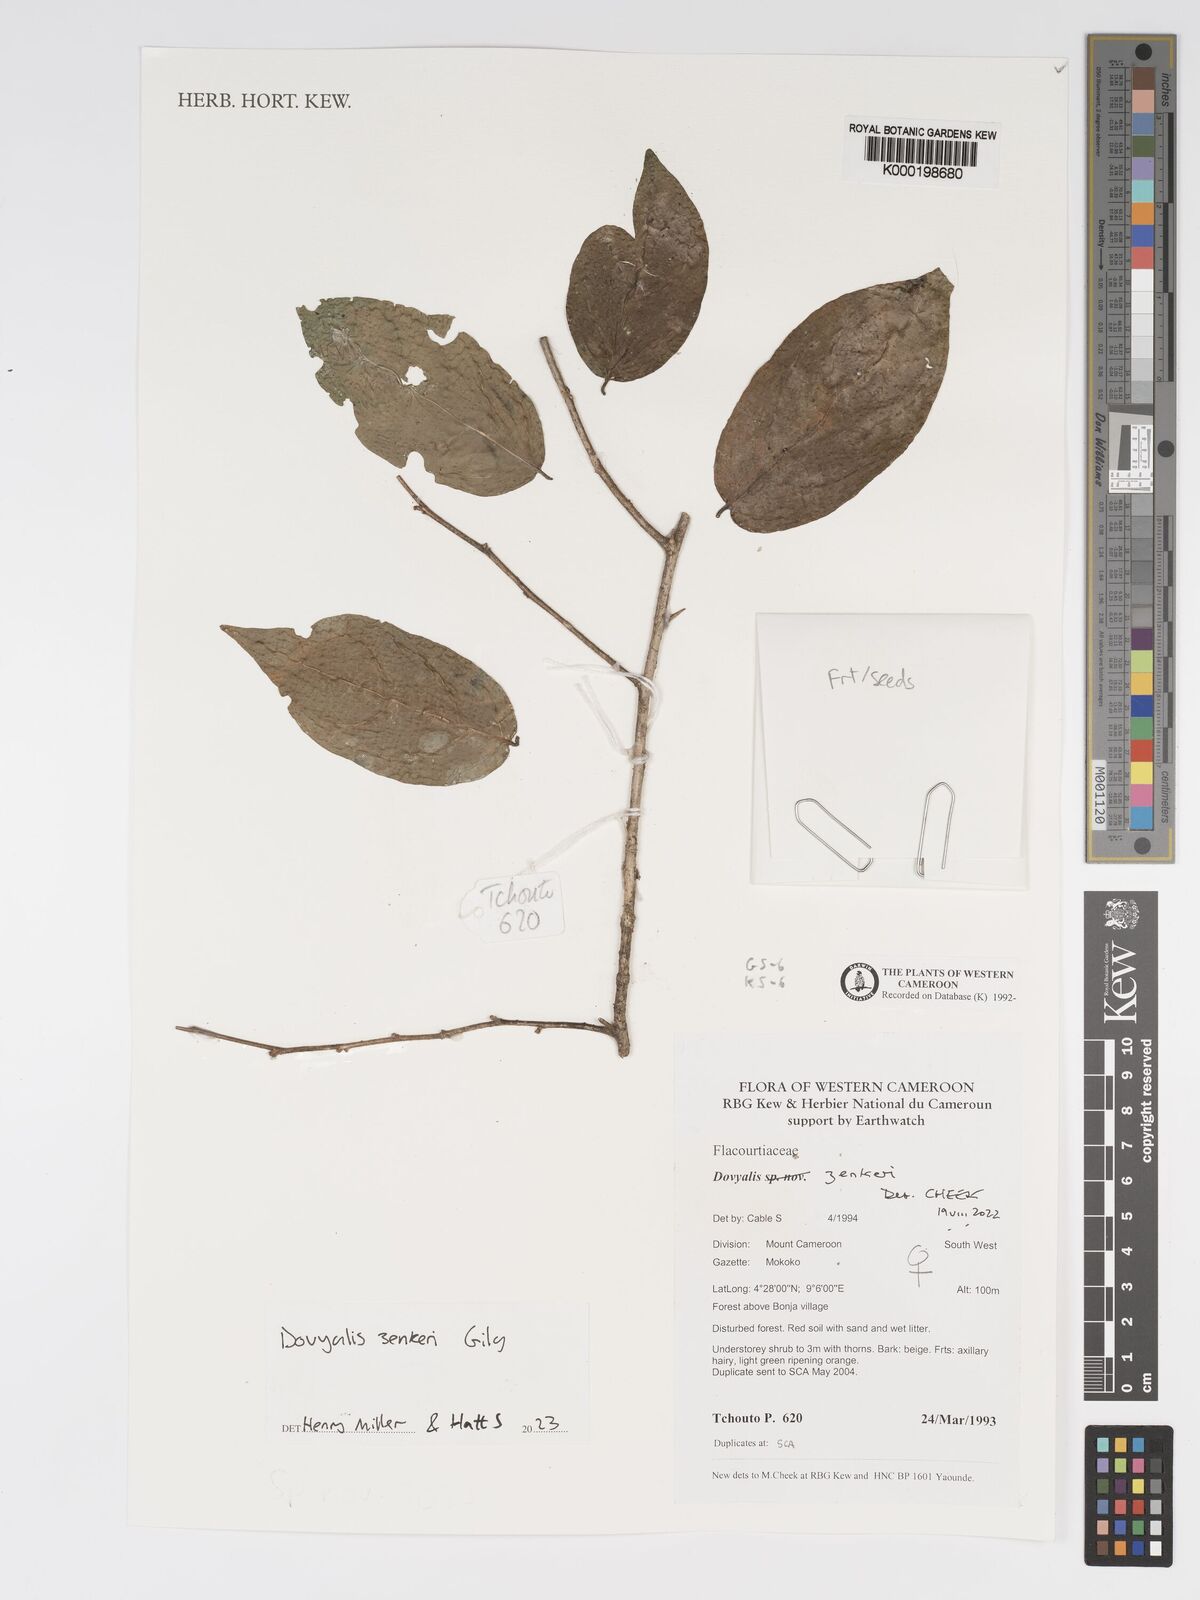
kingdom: Plantae
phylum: Tracheophyta
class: Magnoliopsida
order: Malpighiales
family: Salicaceae
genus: Dovyalis
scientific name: Dovyalis
